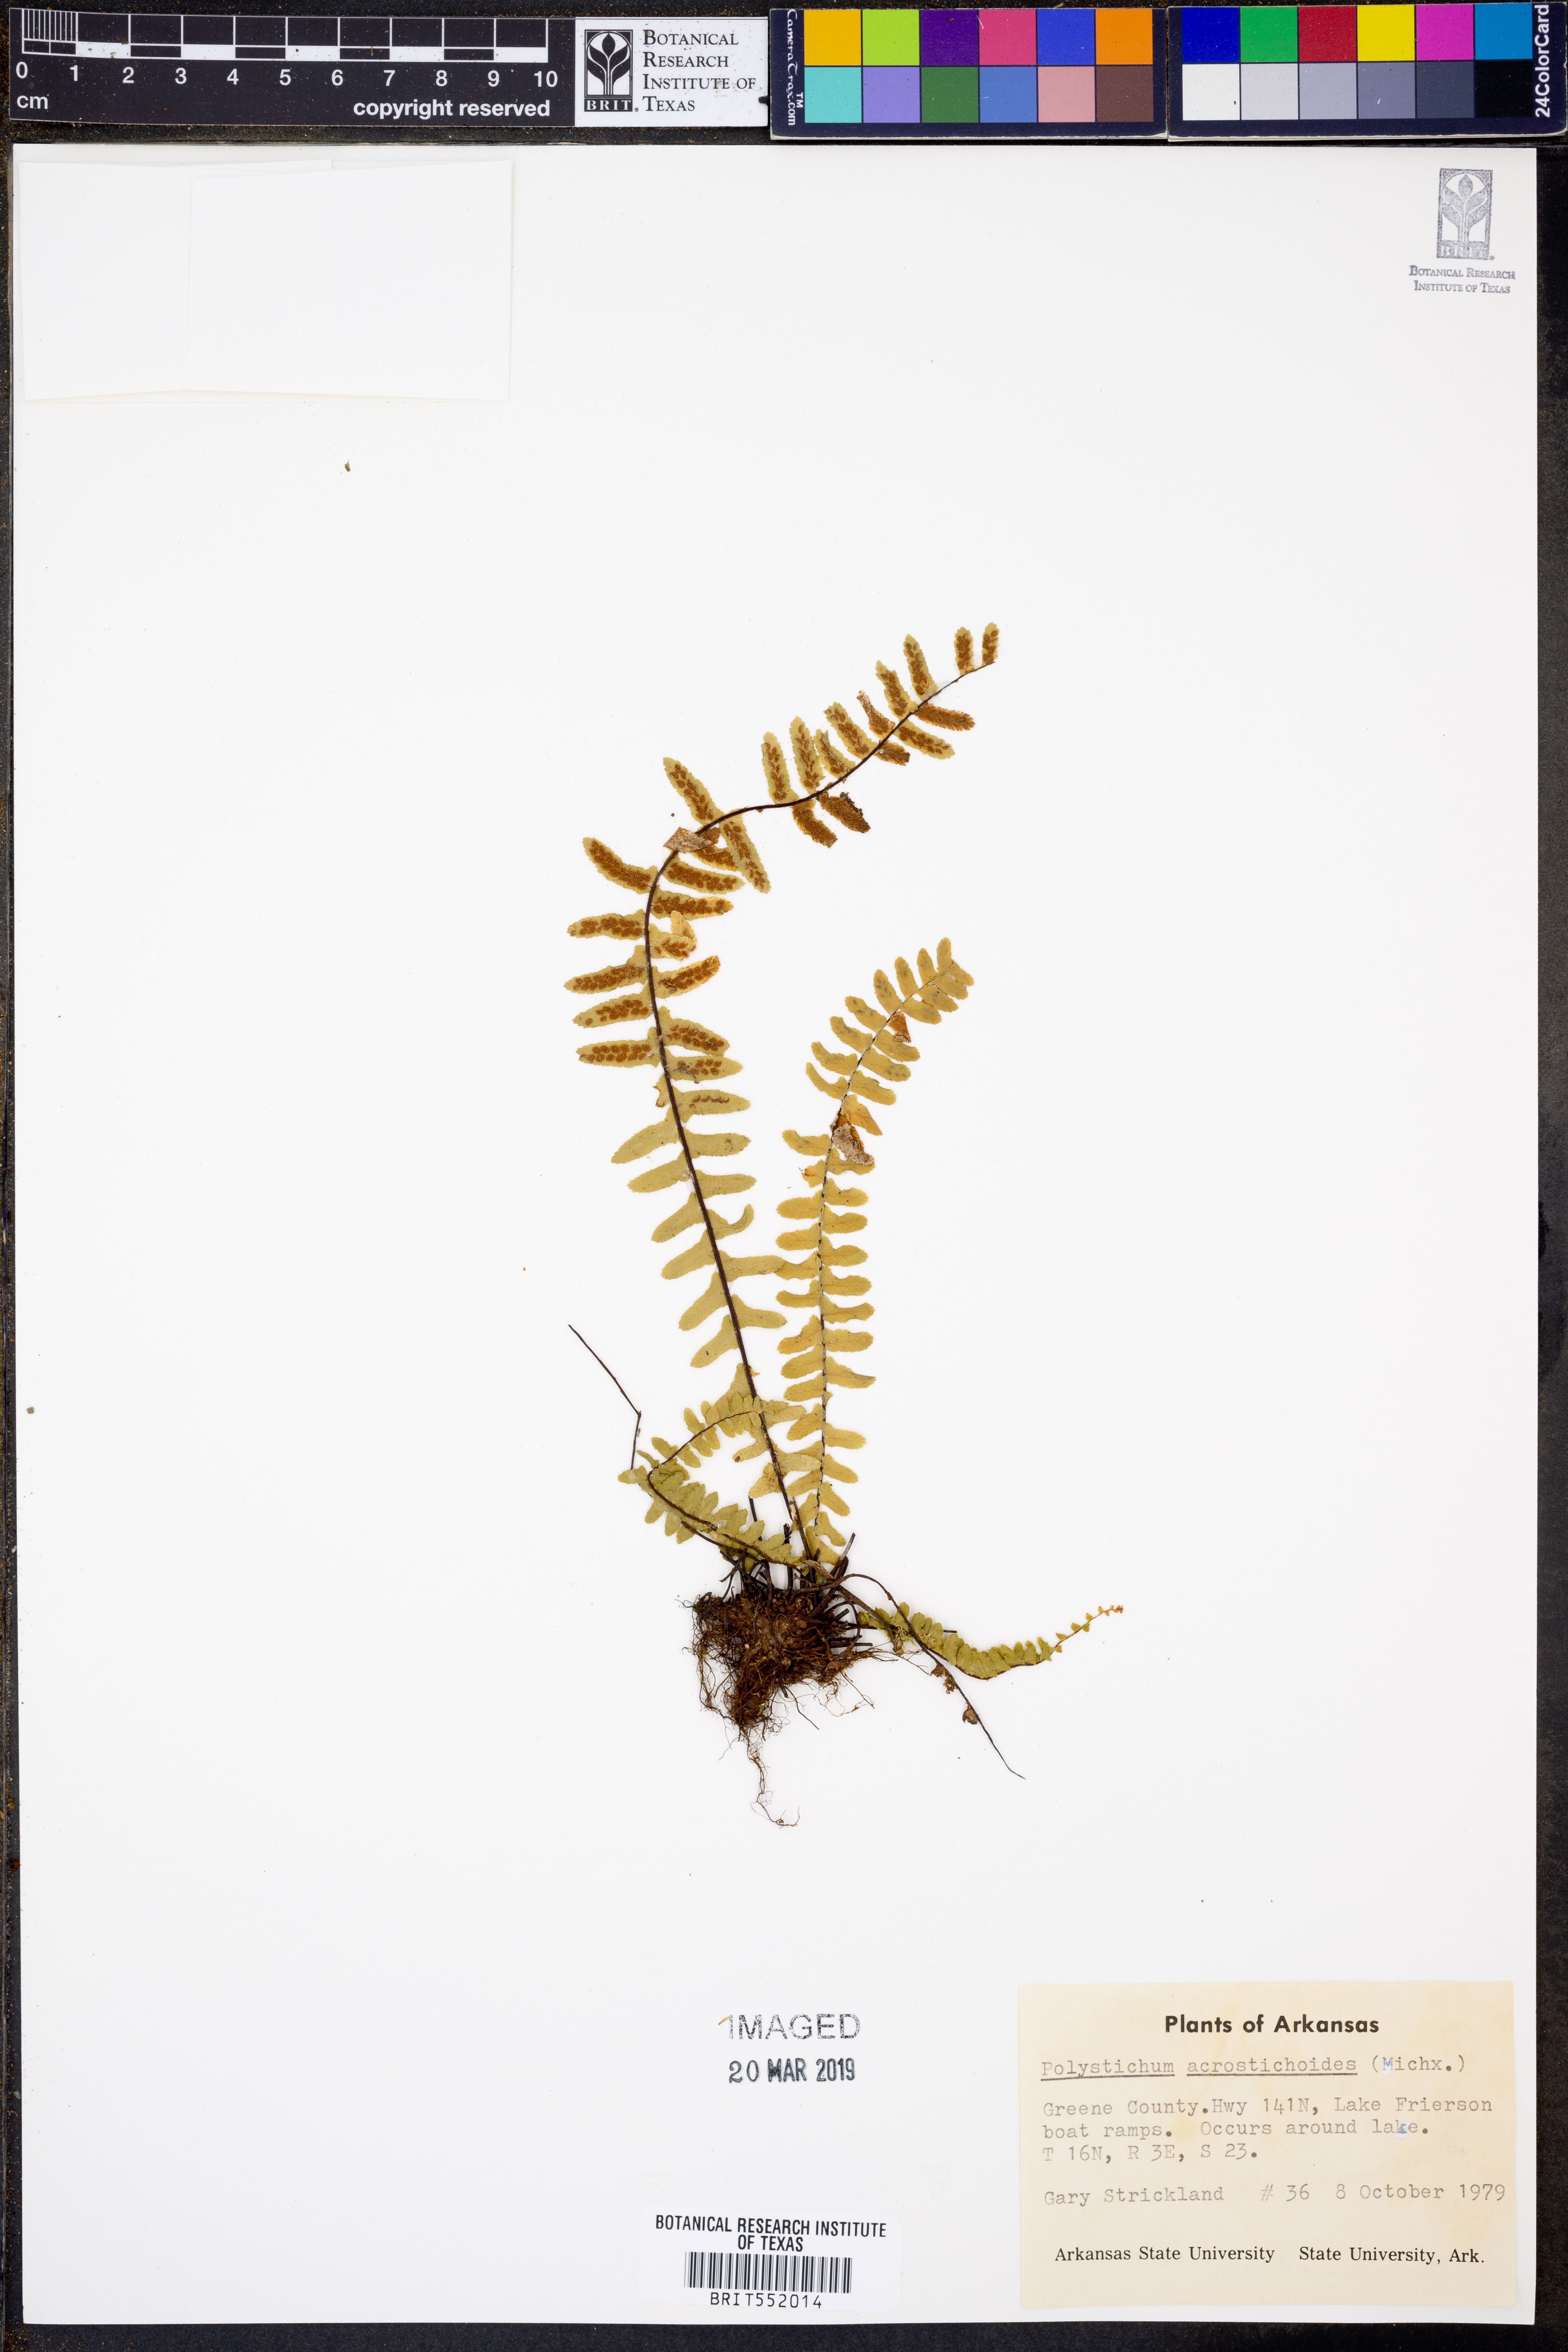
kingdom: Plantae
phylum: Tracheophyta
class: Polypodiopsida
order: Polypodiales
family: Dryopteridaceae
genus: Polystichum
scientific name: Polystichum acrostichoides
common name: Christmas fern
